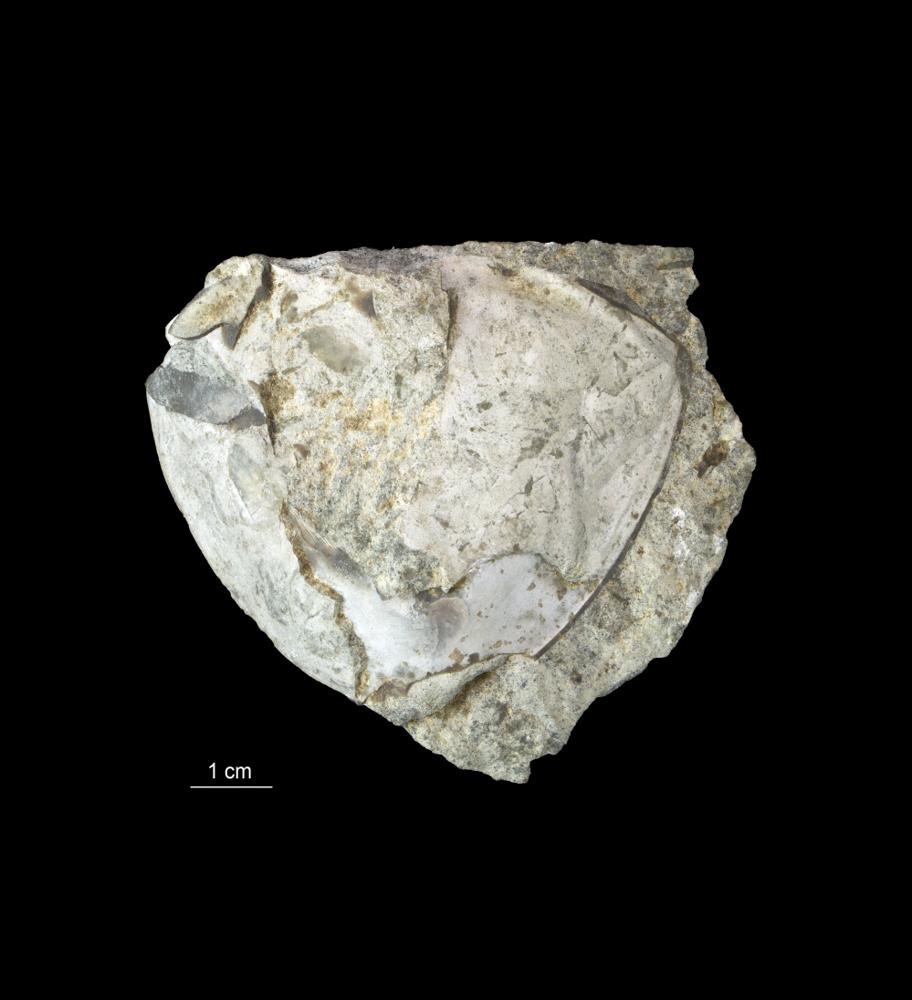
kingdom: Animalia
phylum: Arthropoda
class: Trilobita
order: Asaphida
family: Asaphidae
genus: Isotelus
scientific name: Isotelus
